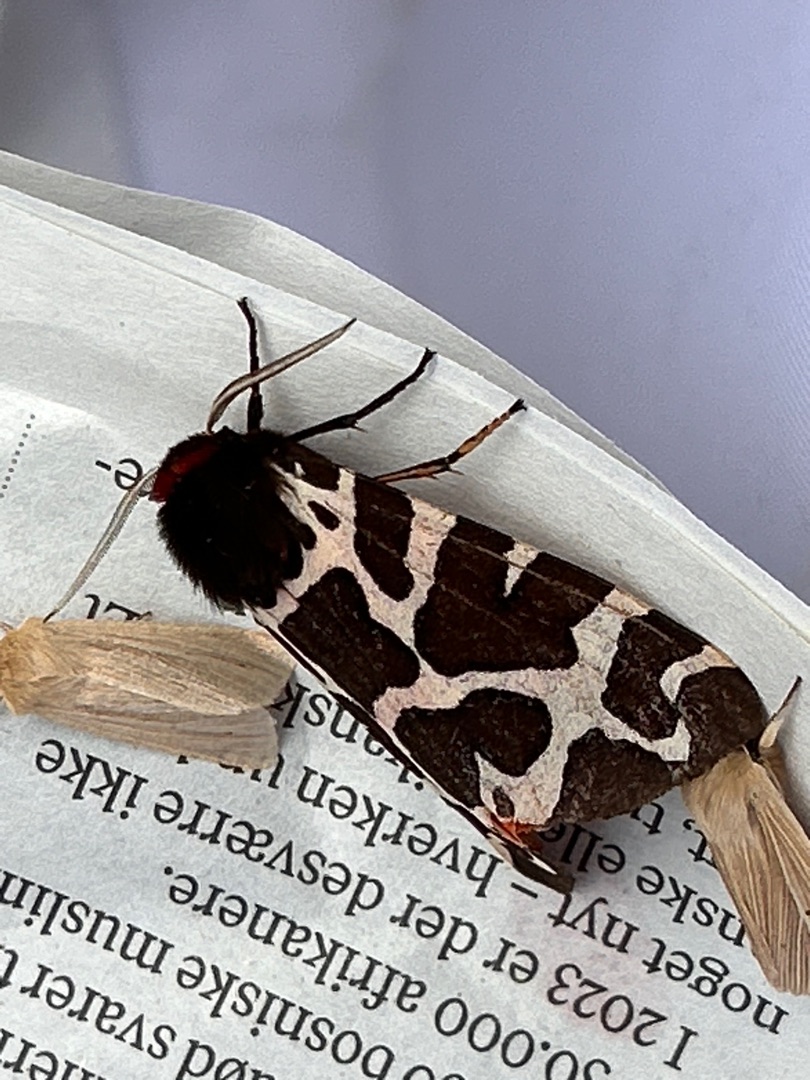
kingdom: Animalia
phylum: Arthropoda
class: Insecta
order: Lepidoptera
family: Erebidae
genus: Arctia
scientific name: Arctia caja
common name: Brun bjørn
